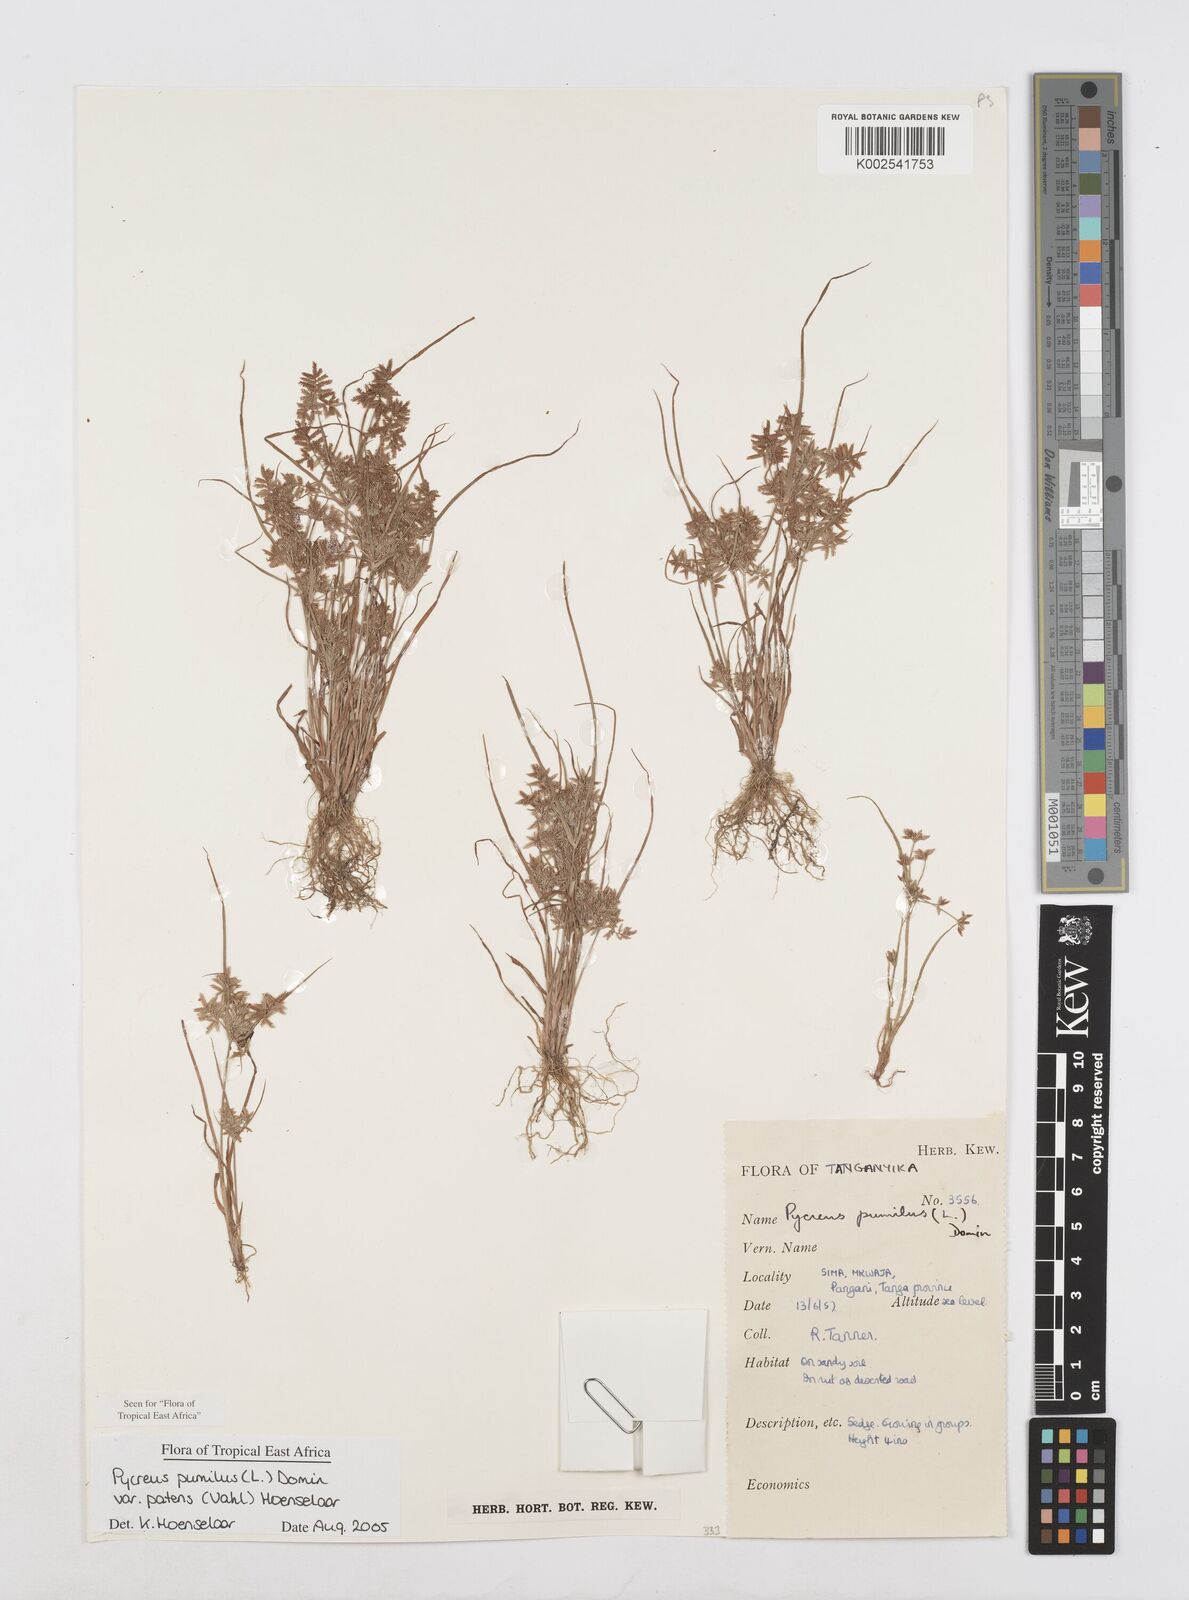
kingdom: Plantae
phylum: Tracheophyta
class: Liliopsida
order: Poales
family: Cyperaceae
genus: Cyperus
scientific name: Cyperus pumilus
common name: Low flatsedge
